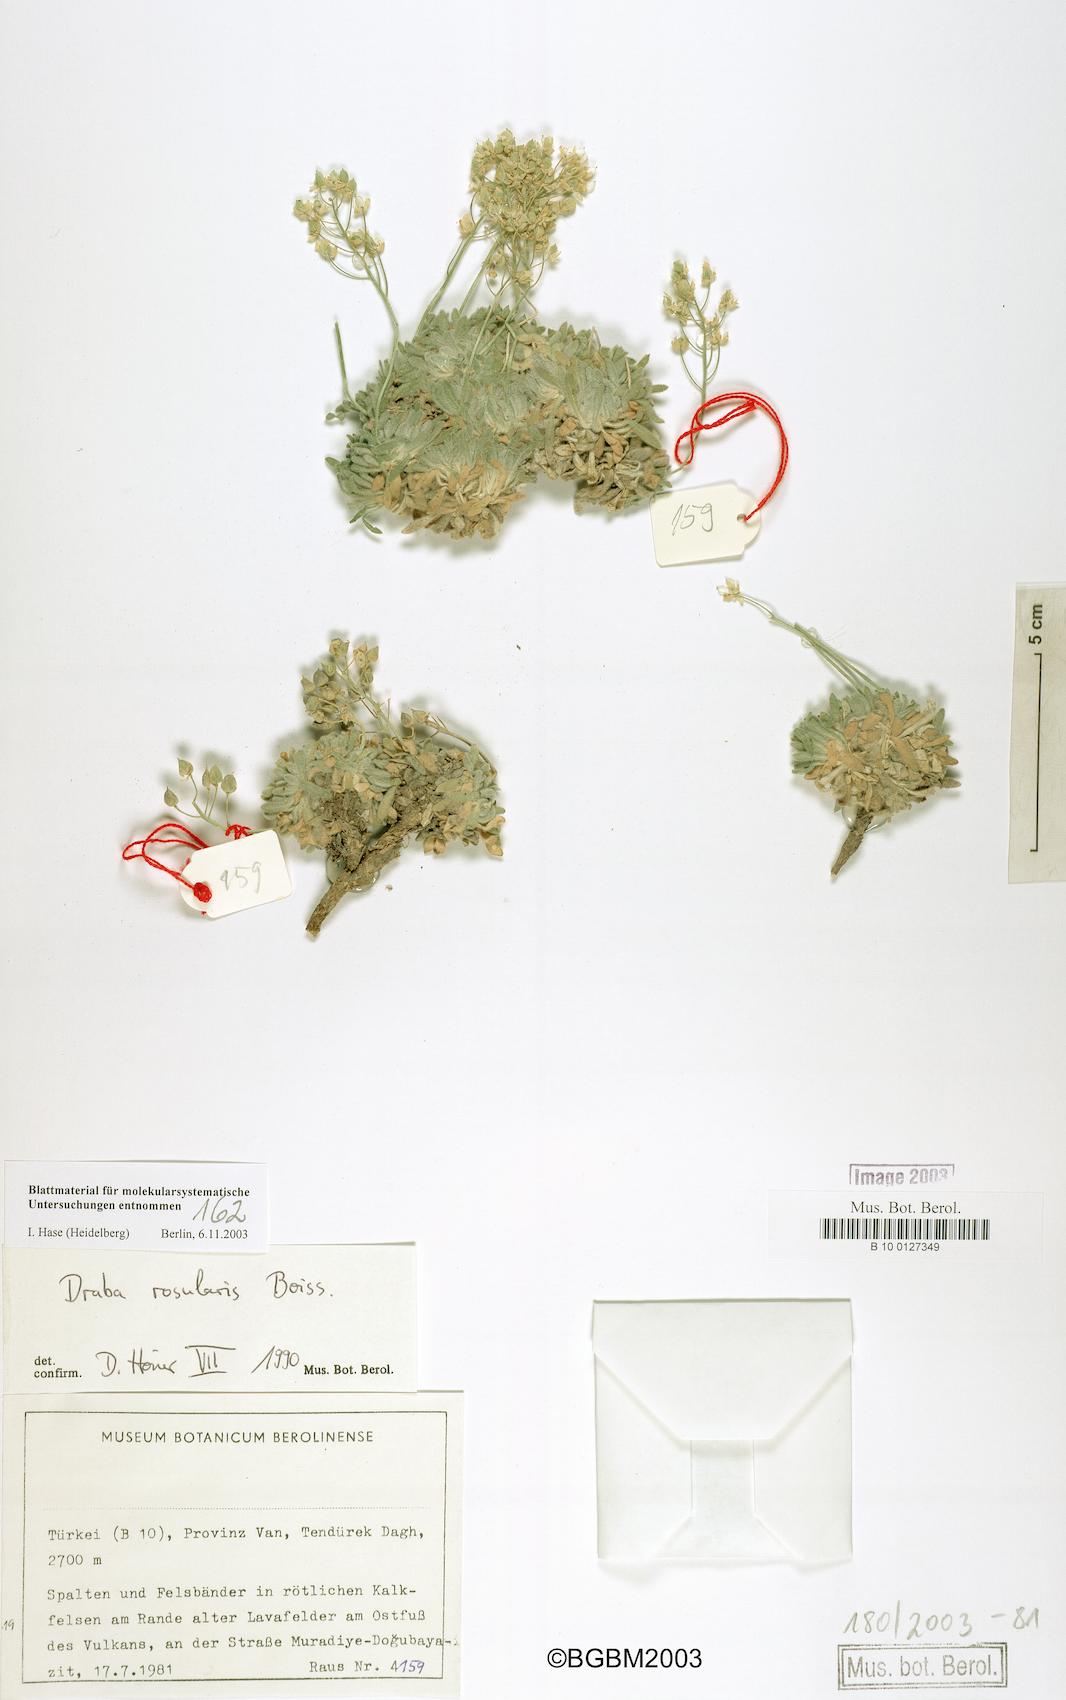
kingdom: Plantae
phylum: Tracheophyta
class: Magnoliopsida
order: Brassicales
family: Brassicaceae
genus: Draba
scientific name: Draba rosularis
